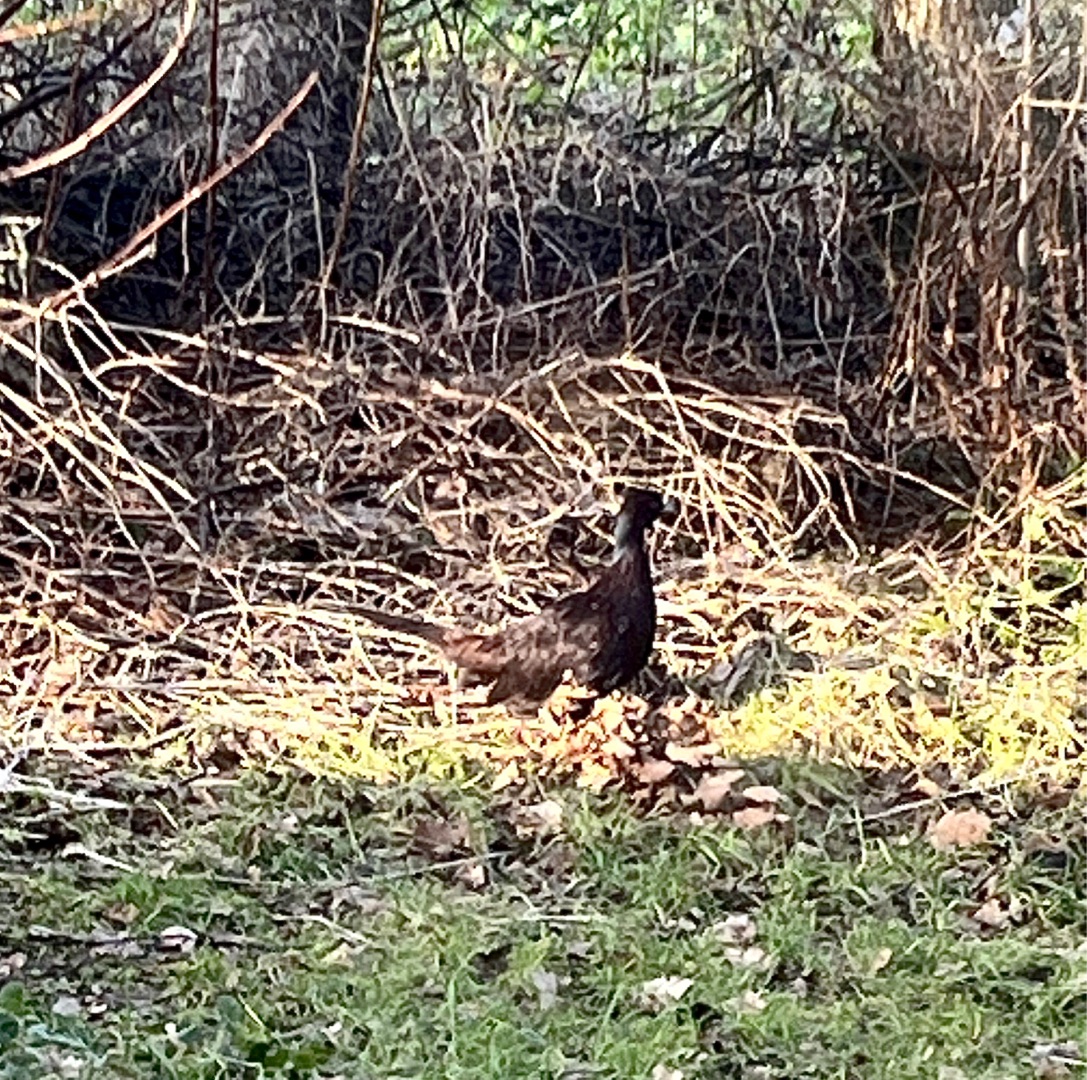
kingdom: Animalia
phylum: Chordata
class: Aves
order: Galliformes
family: Phasianidae
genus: Phasianus
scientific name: Phasianus colchicus
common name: Fasan
